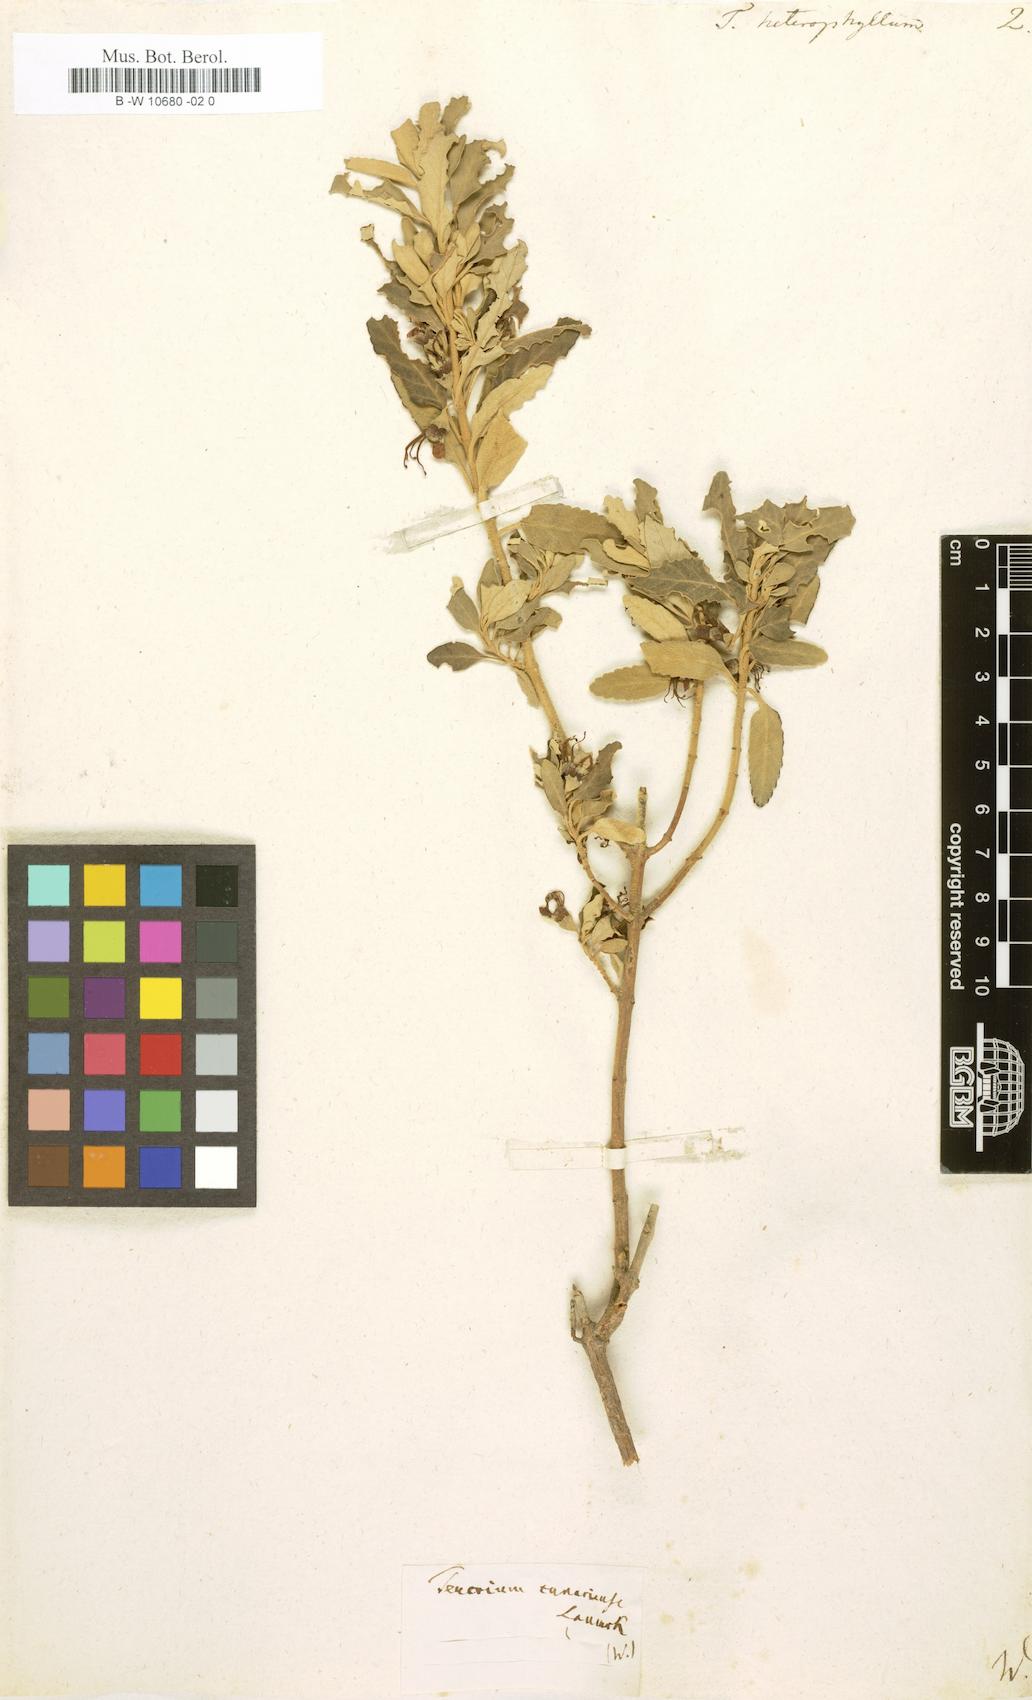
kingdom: Plantae
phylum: Tracheophyta
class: Magnoliopsida
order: Lamiales
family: Lamiaceae
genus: Teucrium
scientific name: Teucrium heterophyllum
